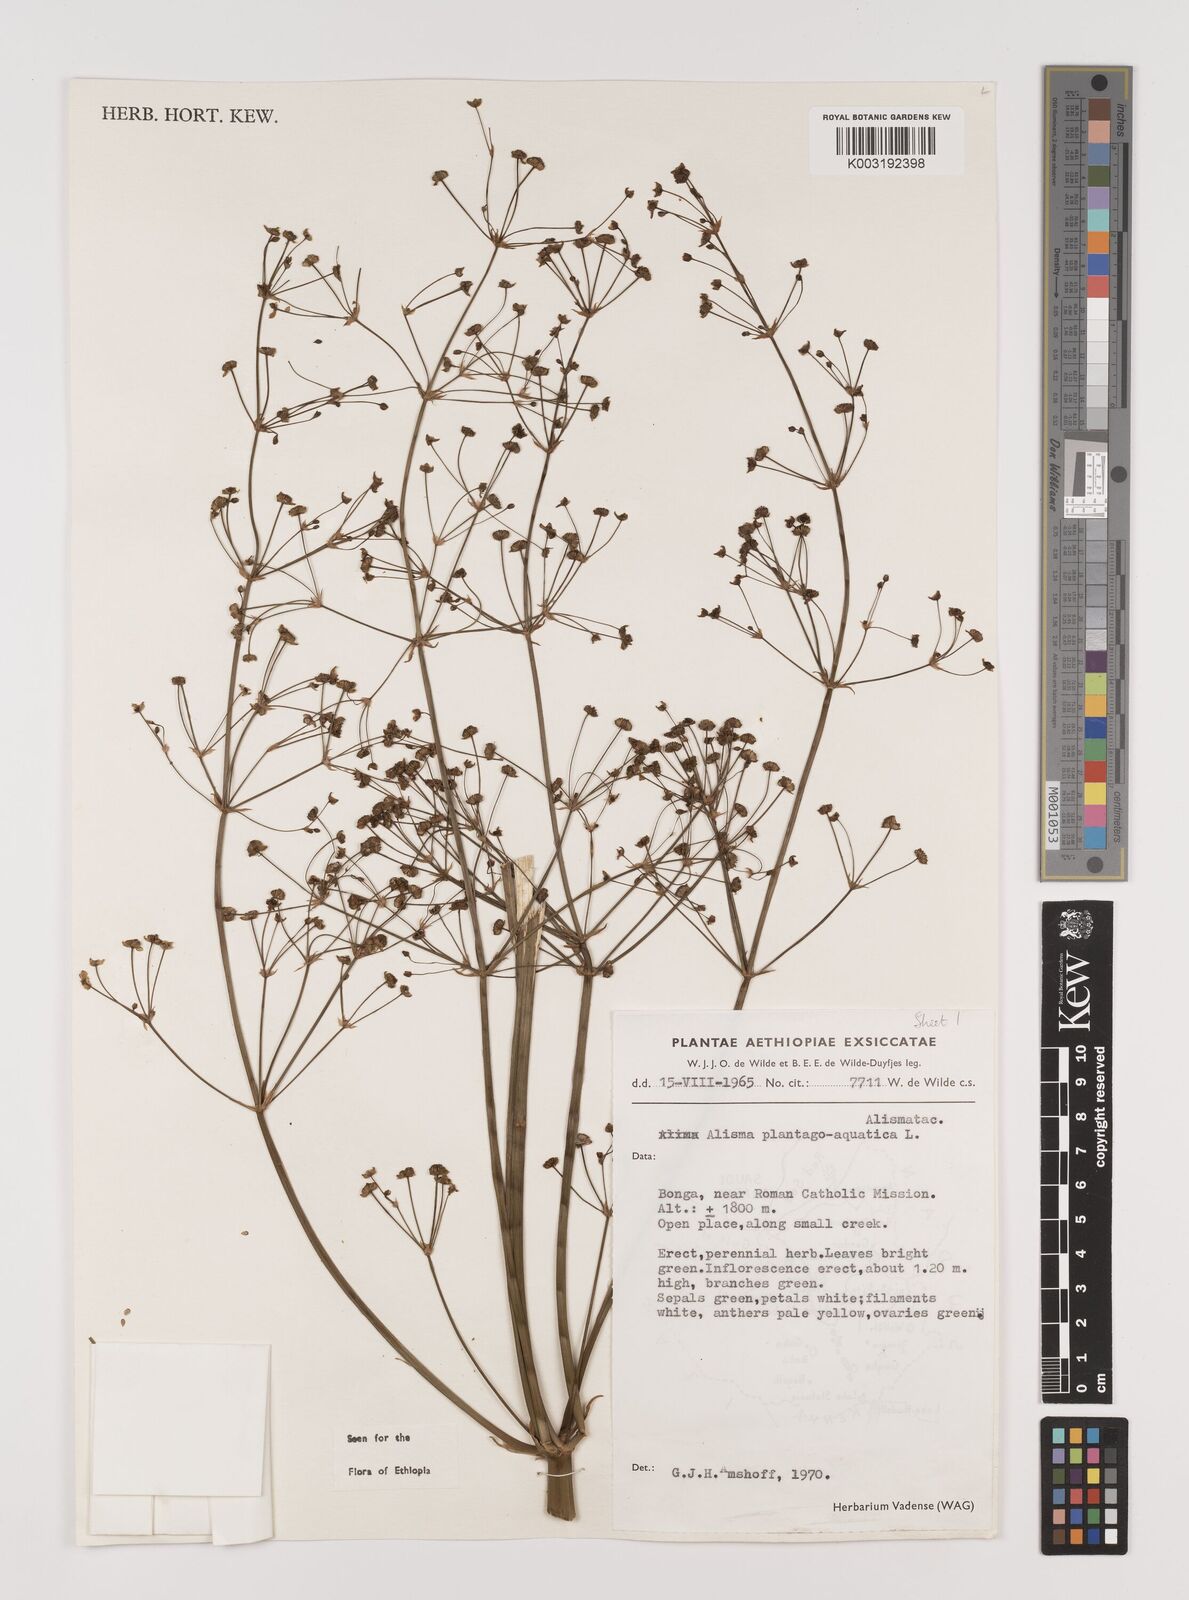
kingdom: Plantae
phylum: Tracheophyta
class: Liliopsida
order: Alismatales
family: Alismataceae
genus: Alisma
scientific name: Alisma plantago-aquatica
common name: Water-plantain
